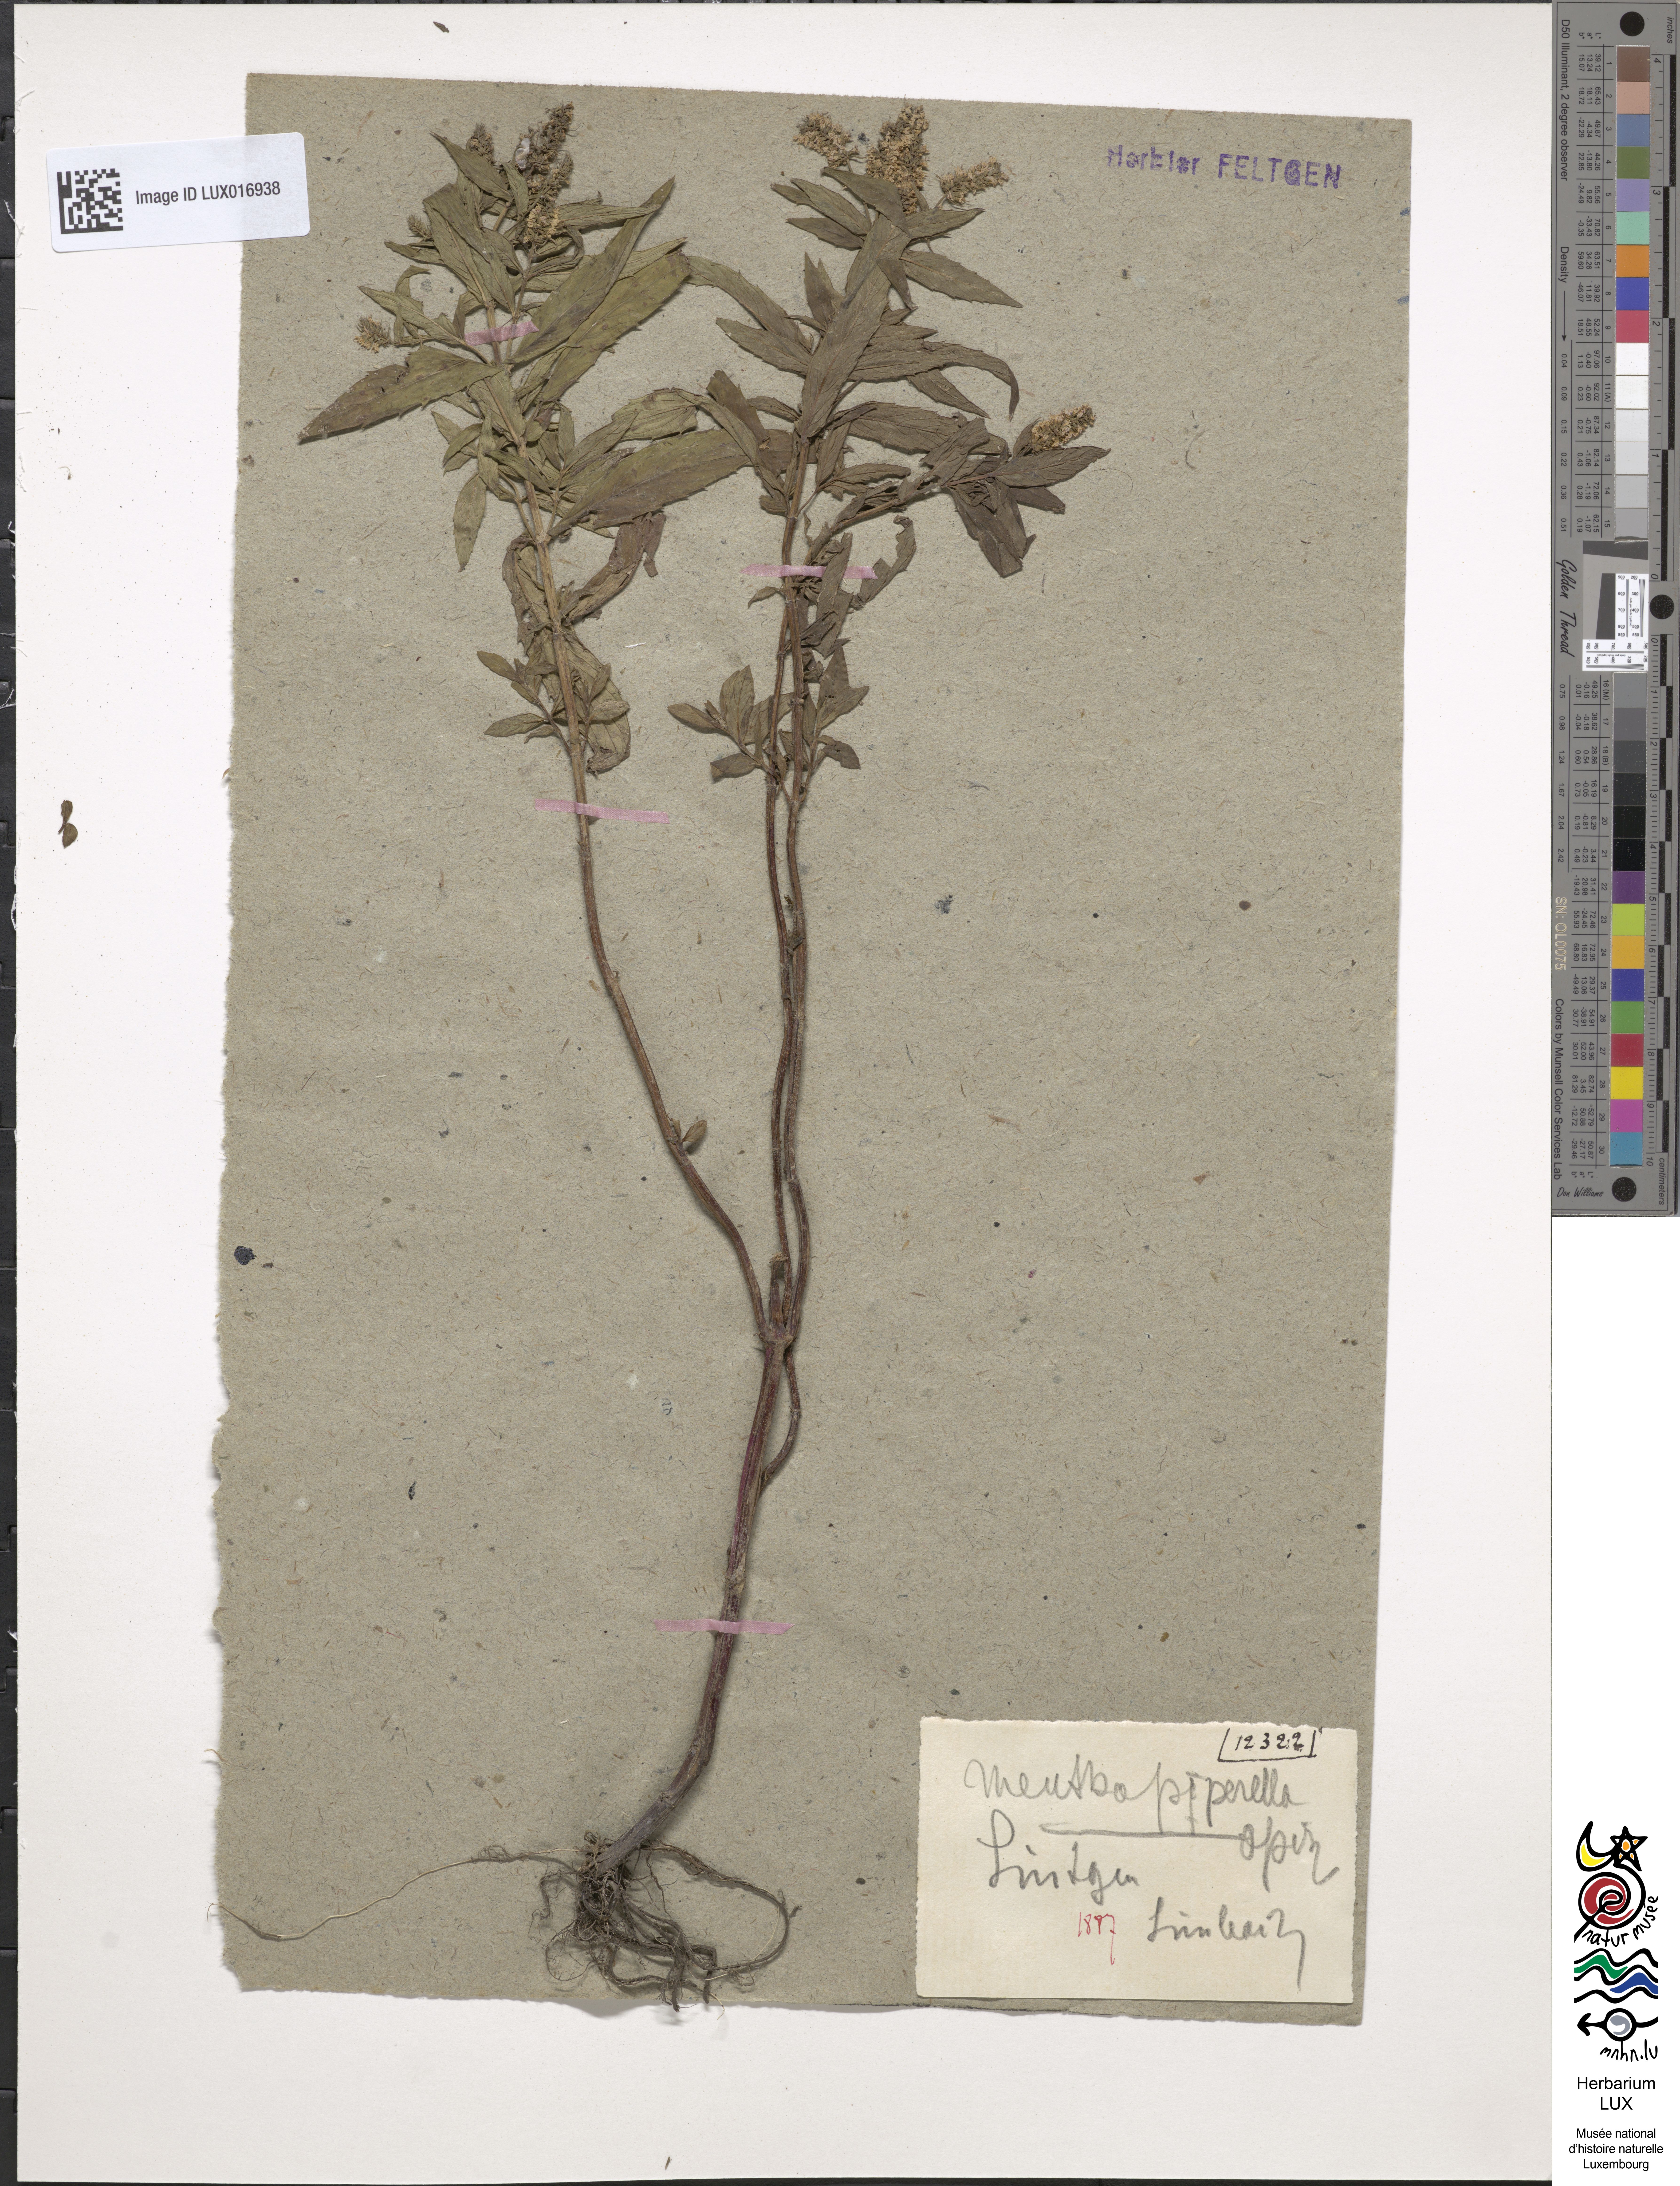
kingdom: Plantae
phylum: Tracheophyta
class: Magnoliopsida
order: Lamiales
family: Lamiaceae
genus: Mentha
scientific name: Mentha spicata
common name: Spearmint
